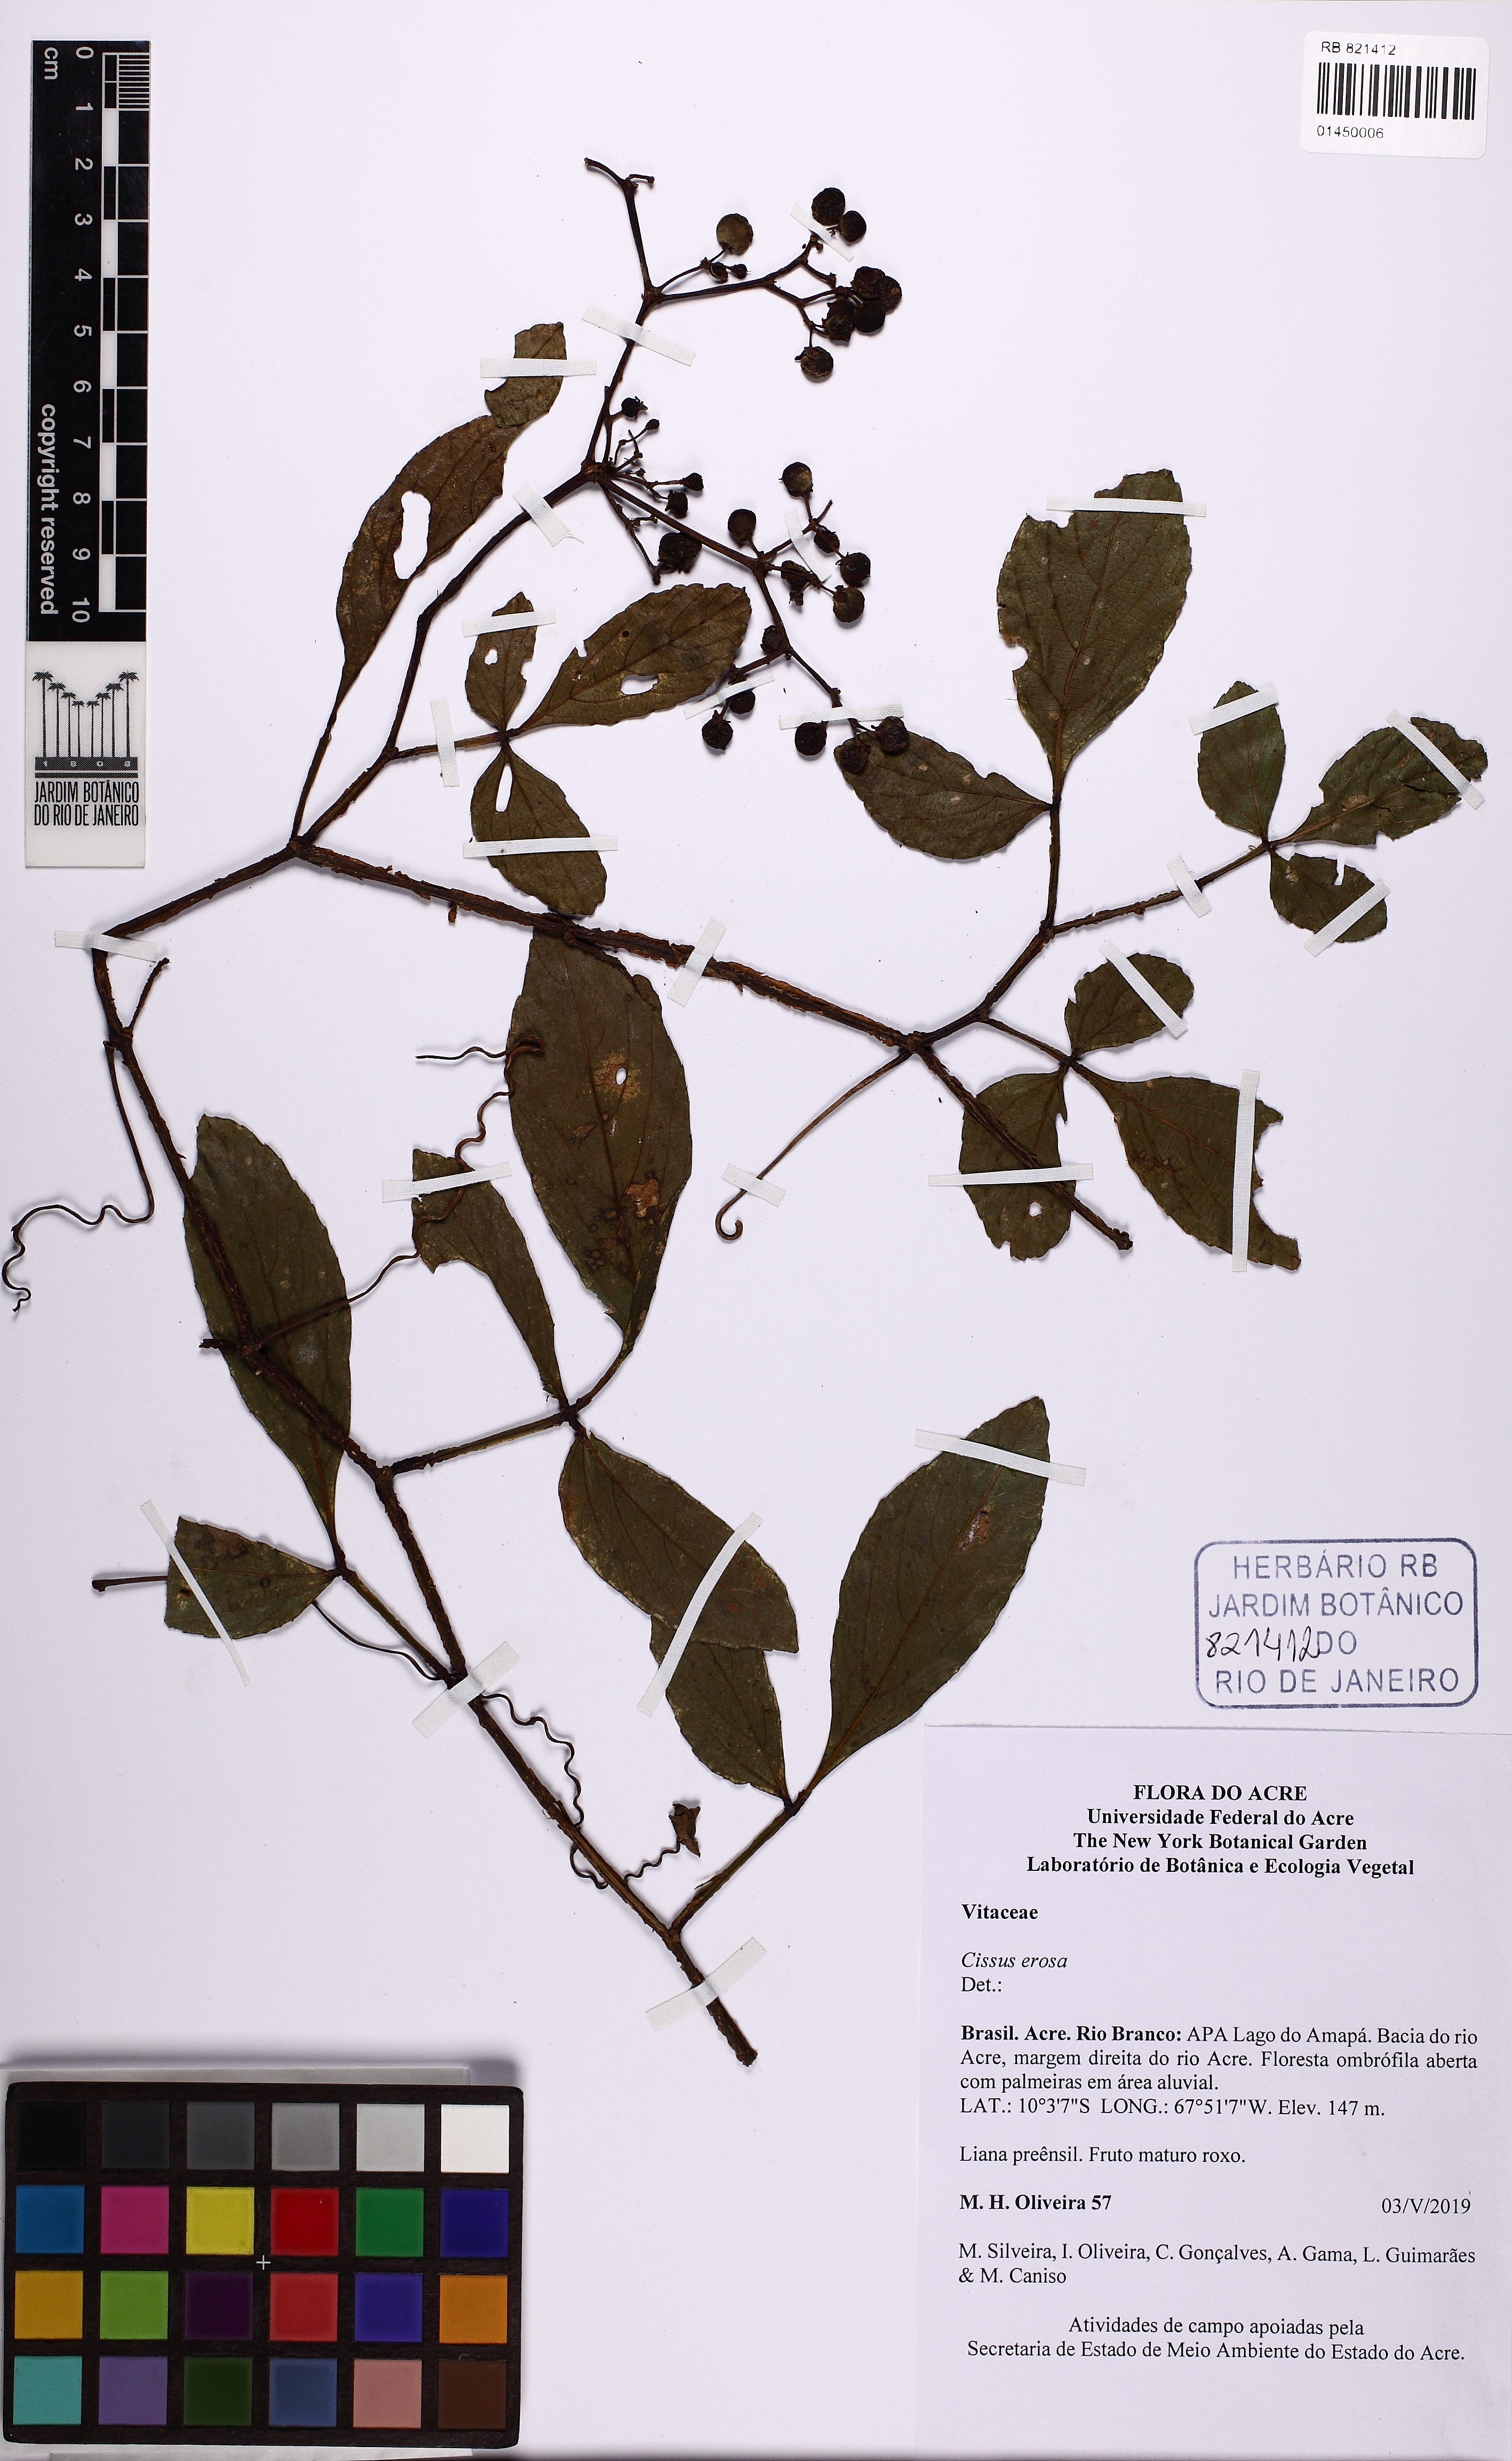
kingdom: Plantae
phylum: Tracheophyta
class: Magnoliopsida
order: Vitales
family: Vitaceae
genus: Cissus
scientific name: Cissus erosa
